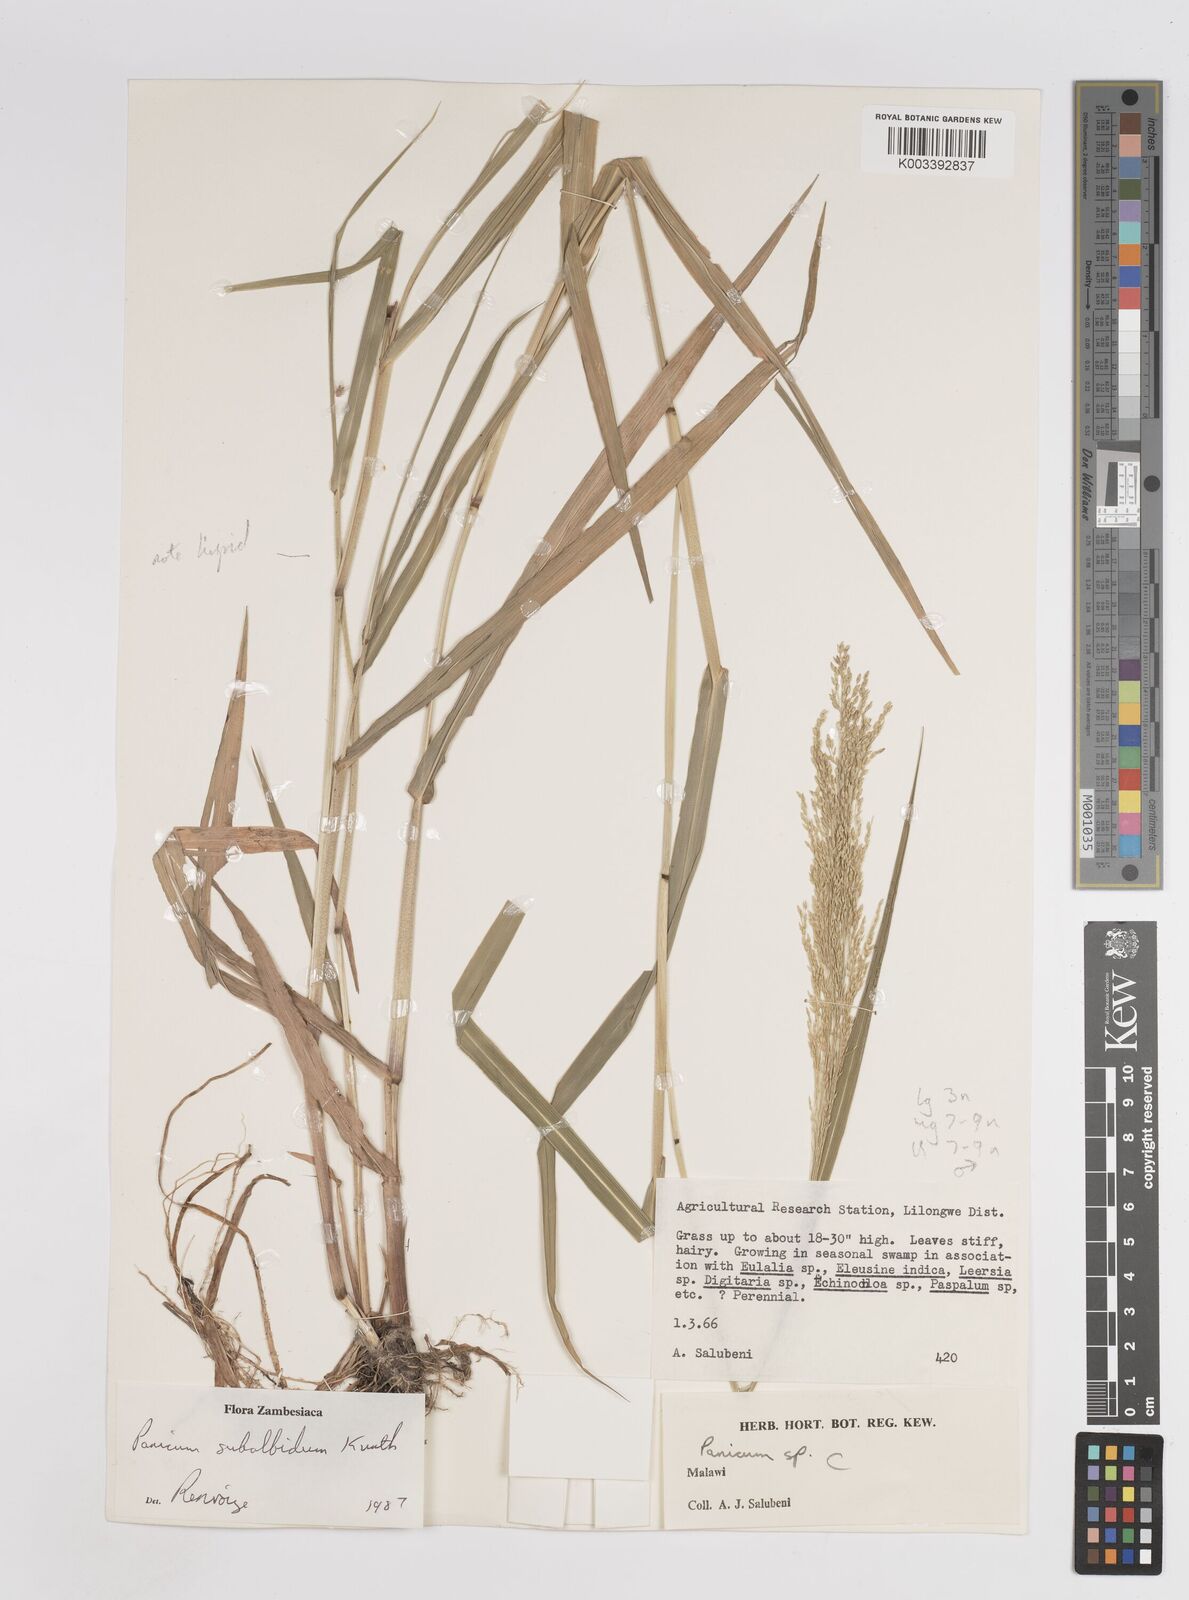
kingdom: Plantae
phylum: Tracheophyta
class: Liliopsida
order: Poales
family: Poaceae
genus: Panicum
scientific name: Panicum subalbidum
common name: Elbow buffalo grass
